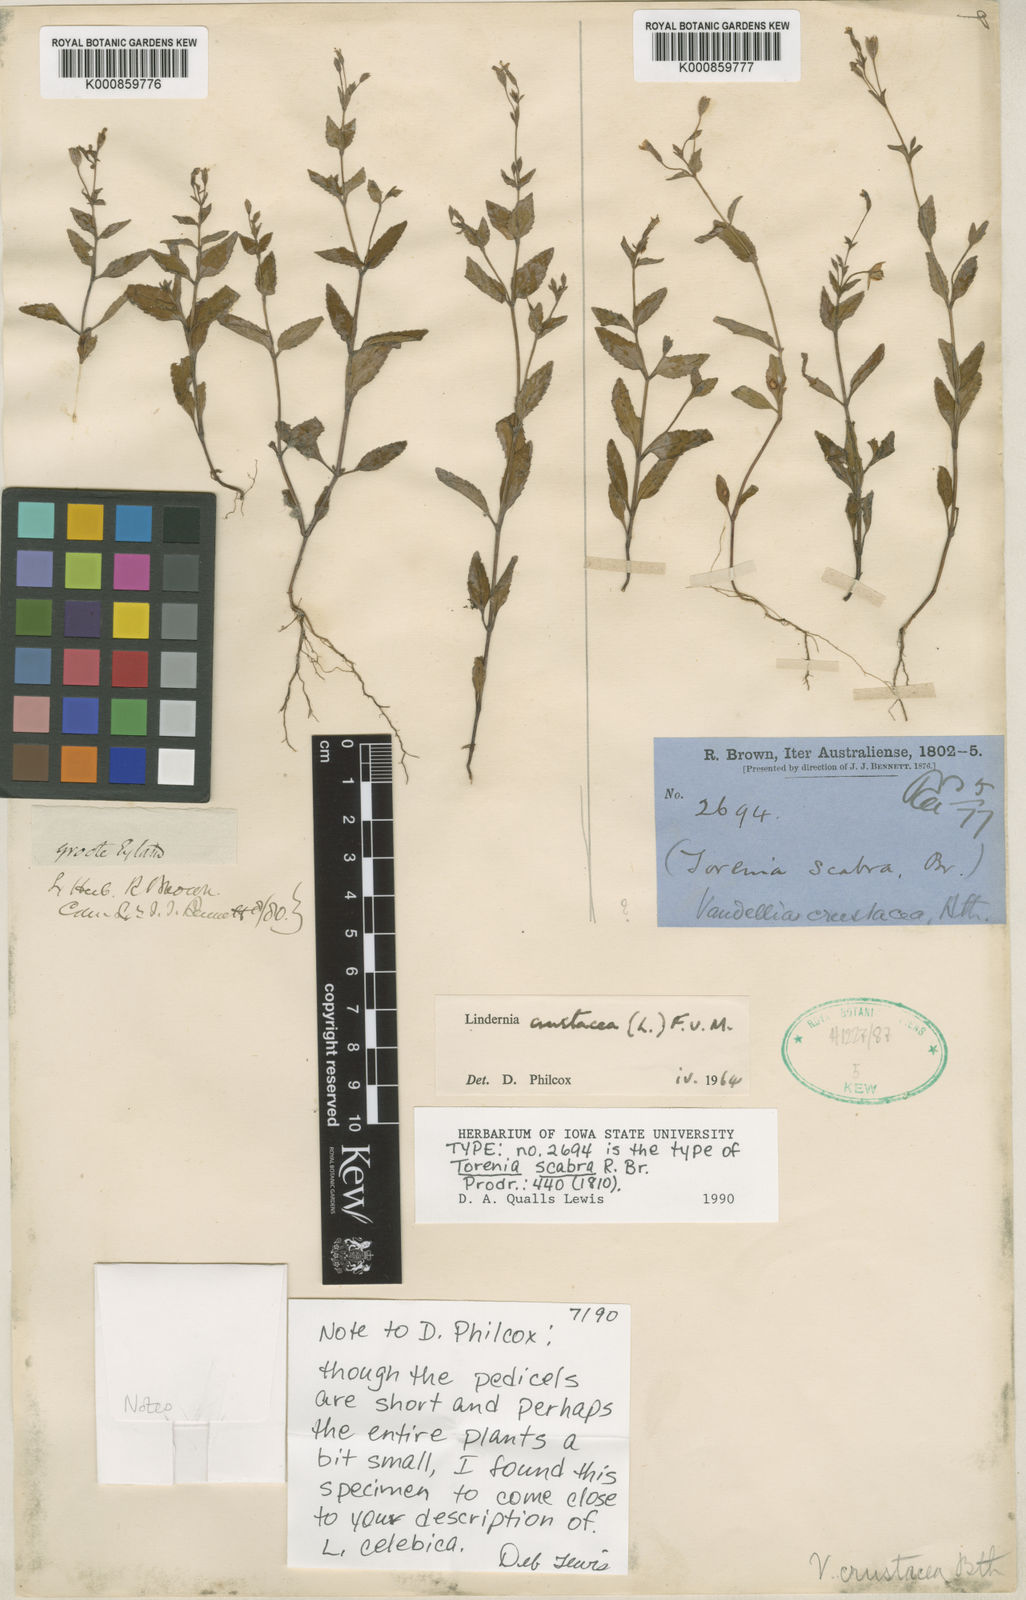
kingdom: Plantae
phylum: Tracheophyta
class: Magnoliopsida
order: Lamiales
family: Linderniaceae
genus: Torenia
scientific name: Torenia crustacea
